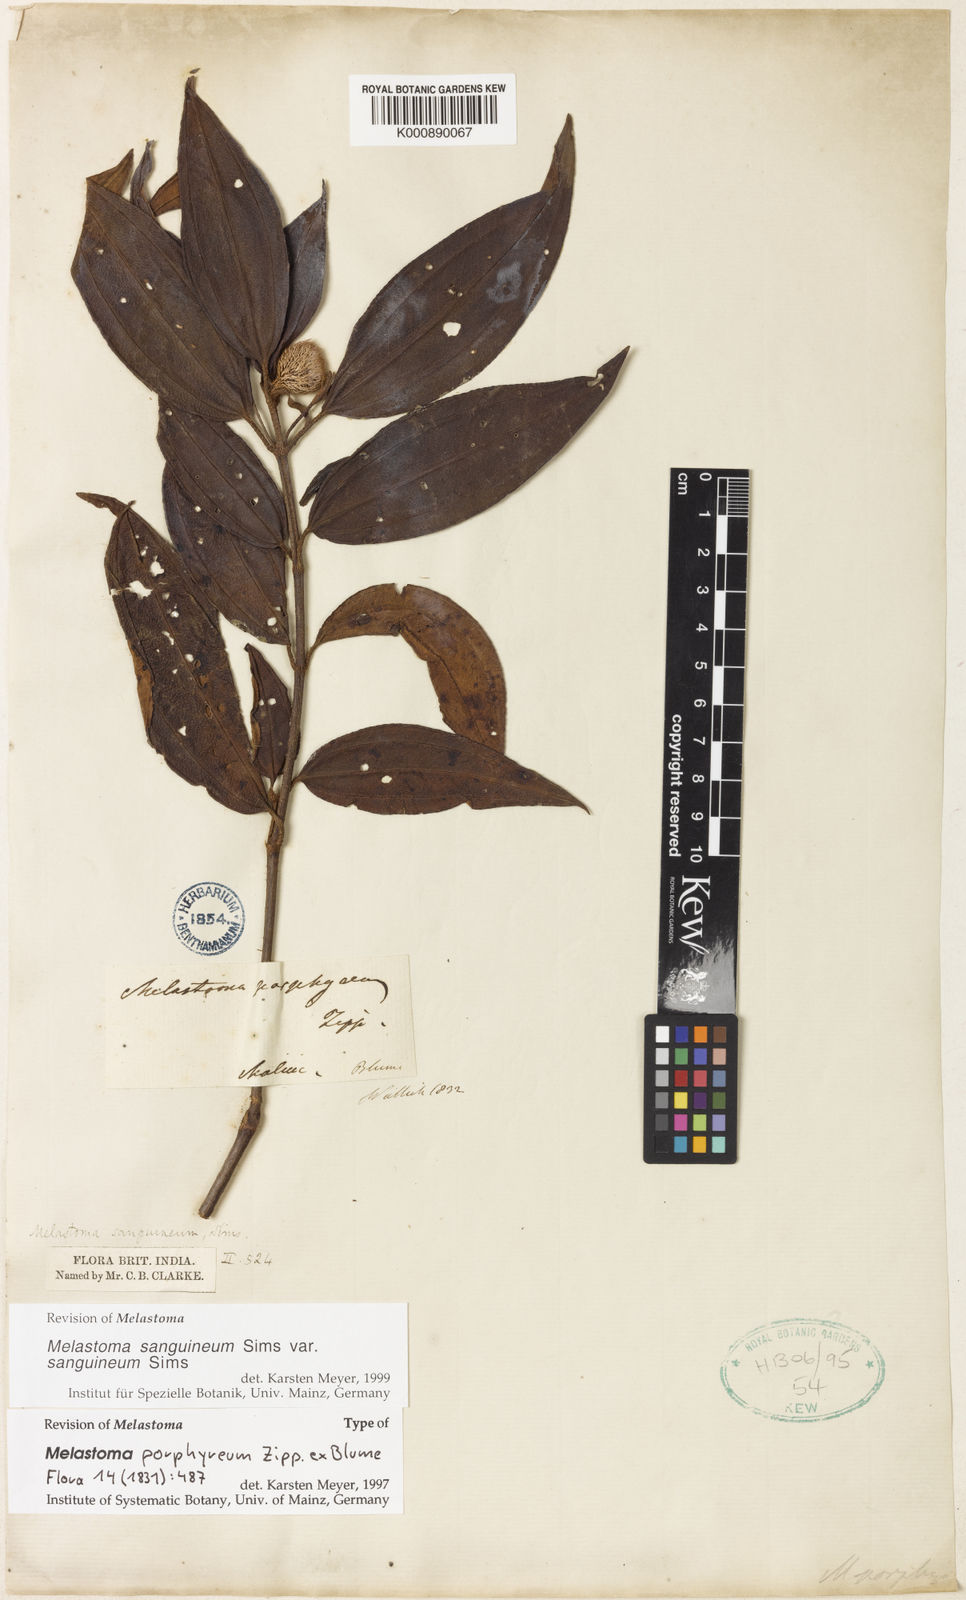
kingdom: Plantae
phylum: Tracheophyta
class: Magnoliopsida
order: Myrtales
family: Melastomataceae
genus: Melastoma
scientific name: Melastoma sanguineum
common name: Red melastome
